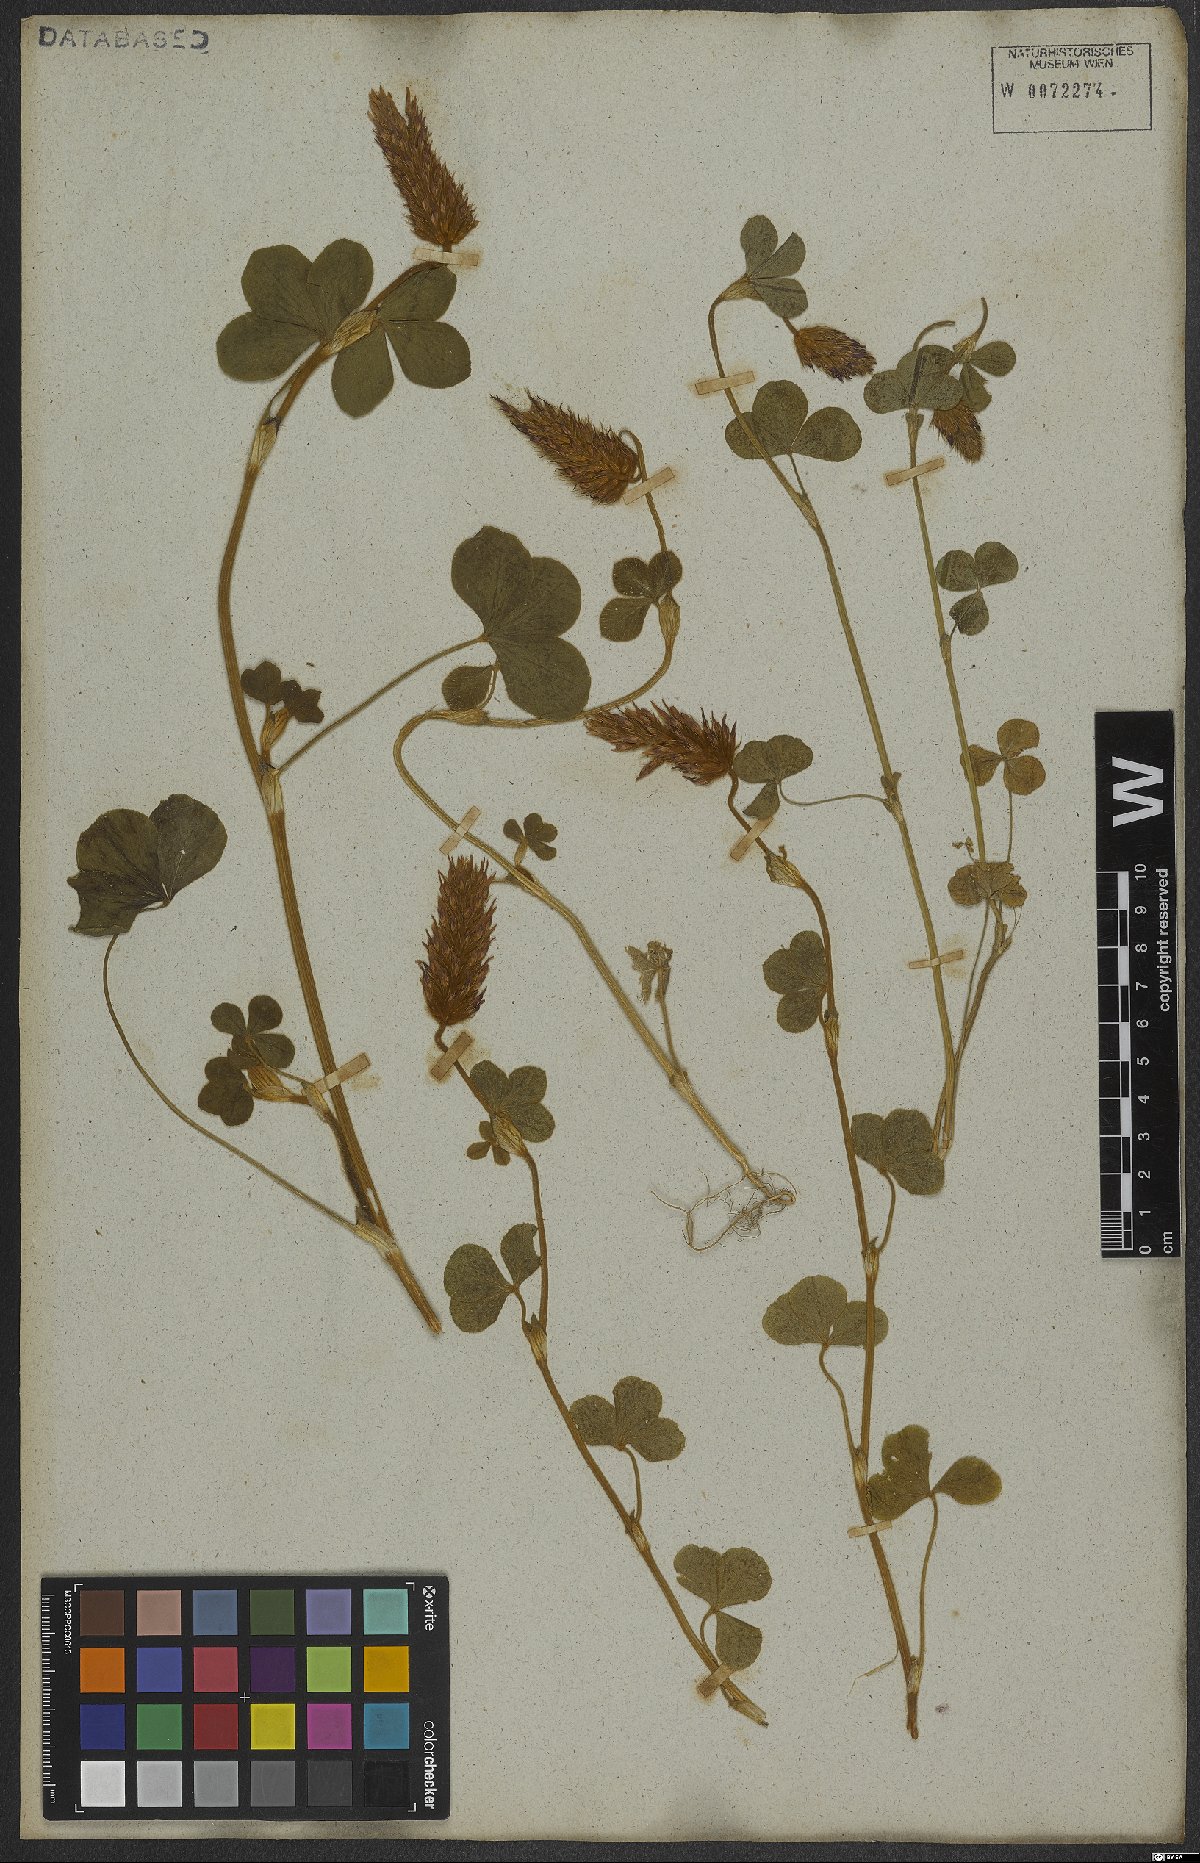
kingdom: Plantae
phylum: Tracheophyta
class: Magnoliopsida
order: Fabales
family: Fabaceae
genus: Trifolium
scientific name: Trifolium incarnatum
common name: Crimson clover
